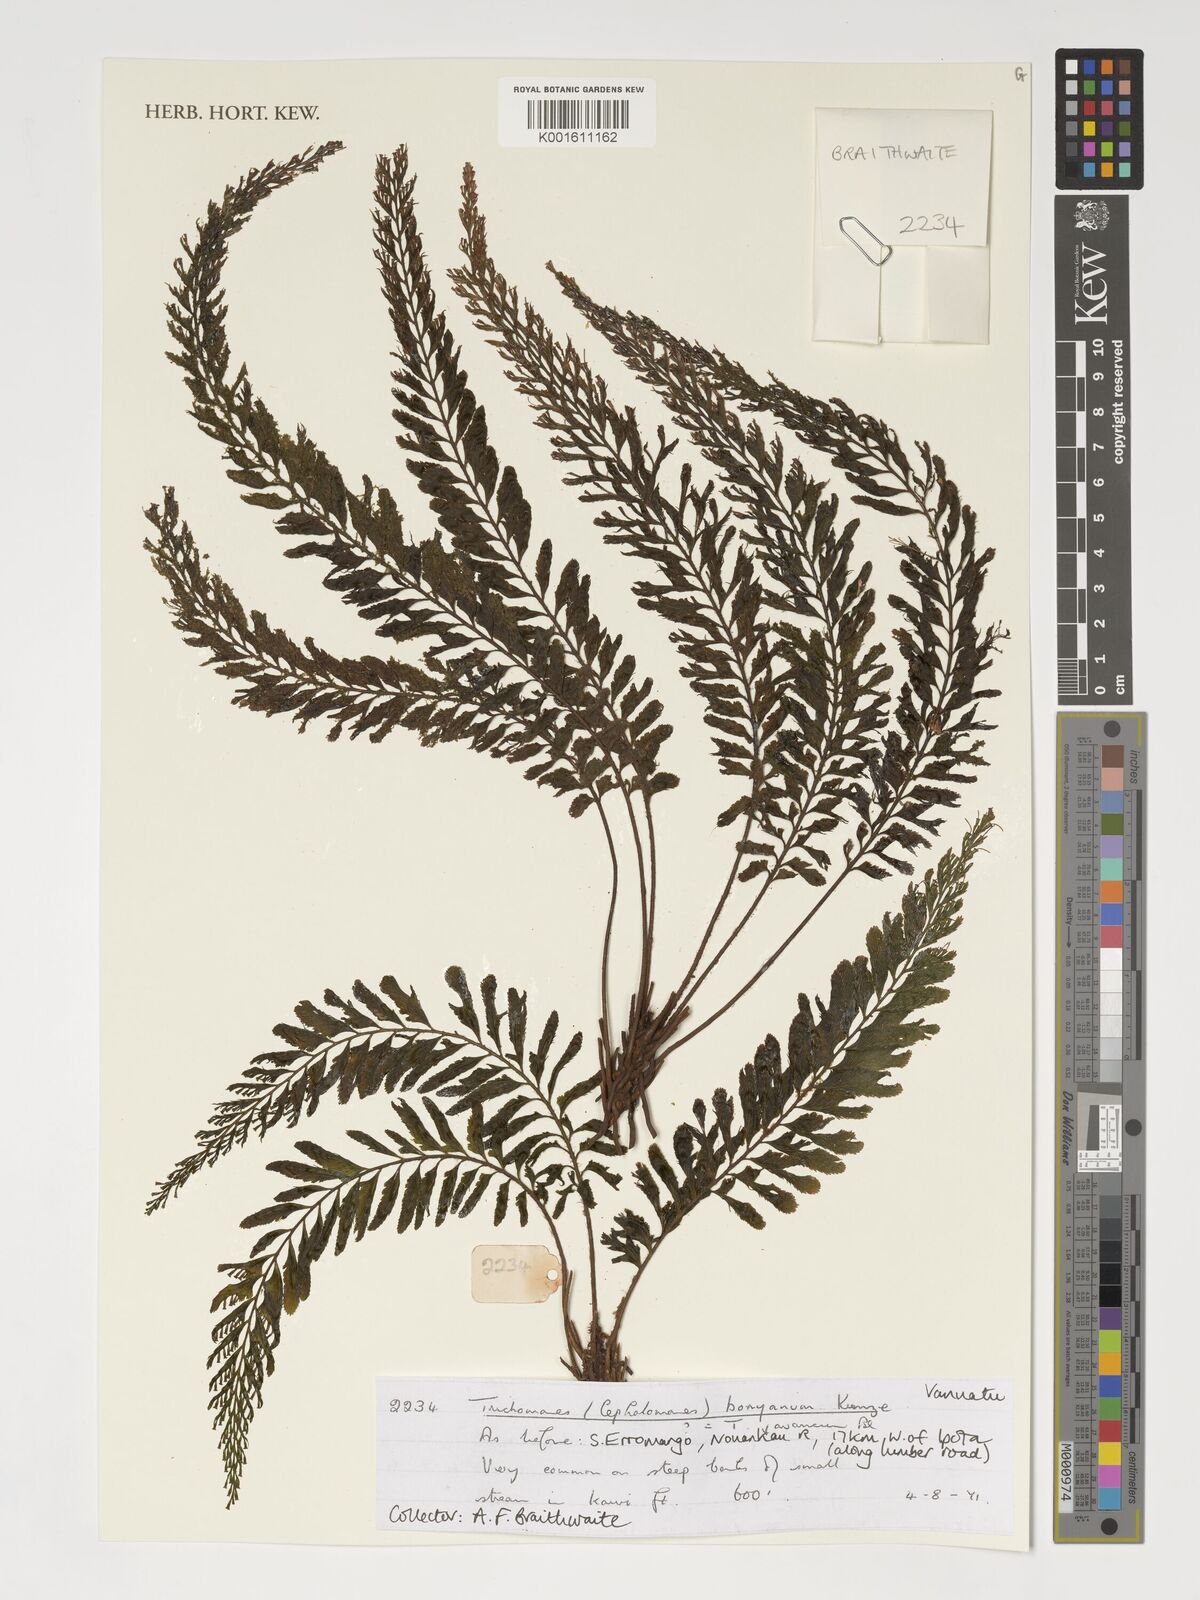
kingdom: Plantae
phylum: Tracheophyta
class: Polypodiopsida
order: Hymenophyllales
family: Hymenophyllaceae
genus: Cephalomanes
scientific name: Cephalomanes boryanum
